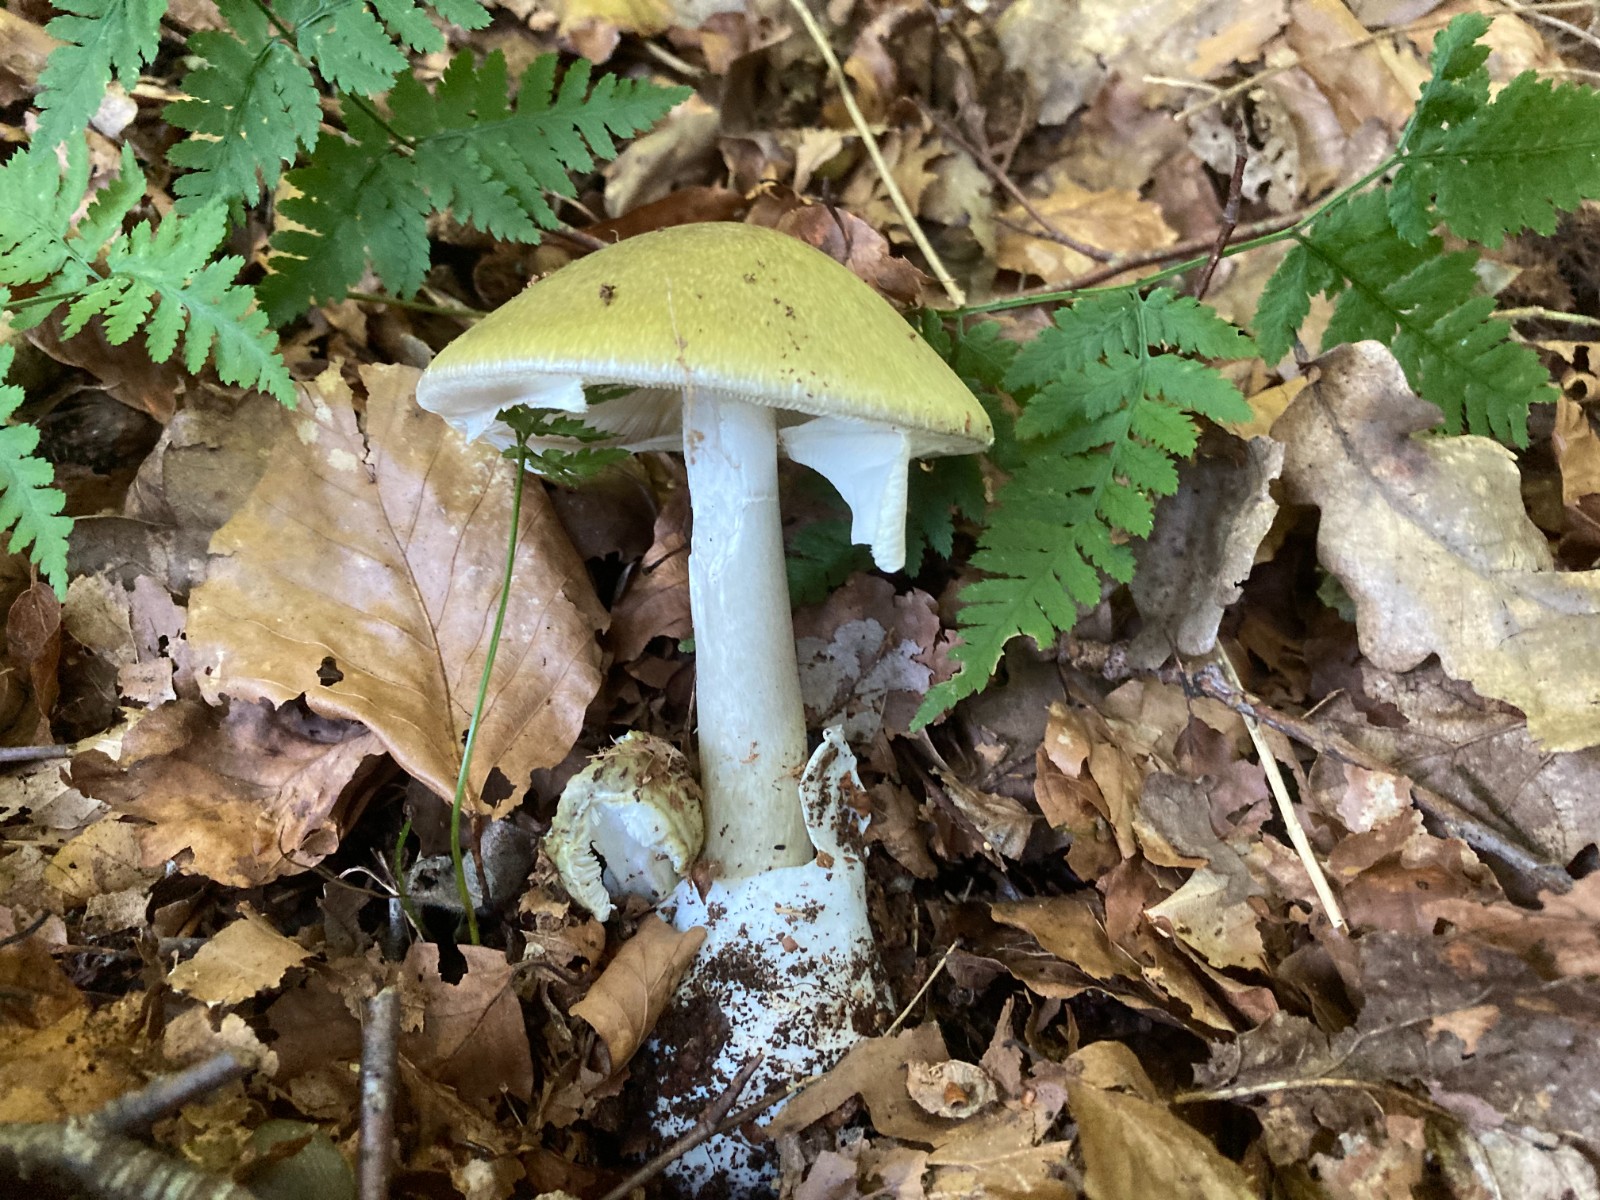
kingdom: Fungi
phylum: Basidiomycota
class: Agaricomycetes
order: Agaricales
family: Amanitaceae
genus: Amanita
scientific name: Amanita phalloides
